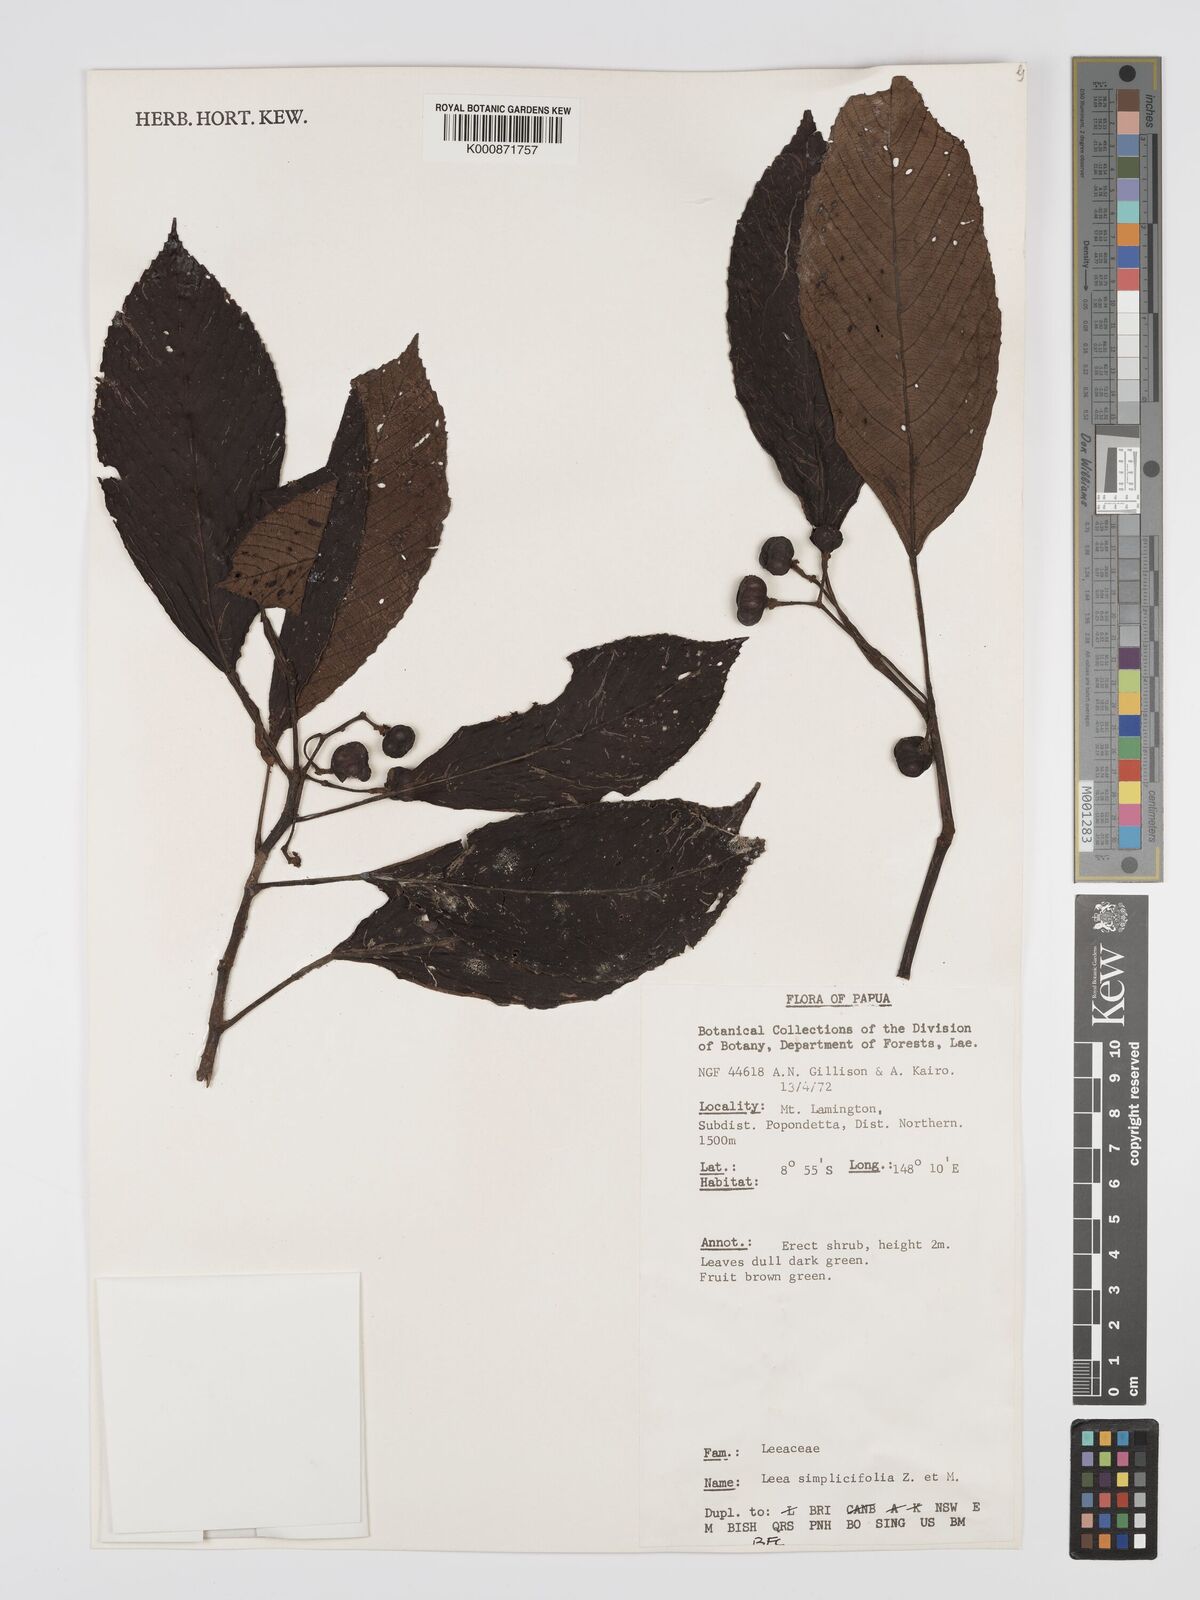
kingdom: Plantae
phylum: Tracheophyta
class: Magnoliopsida
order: Vitales
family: Vitaceae
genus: Leea
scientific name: Leea
